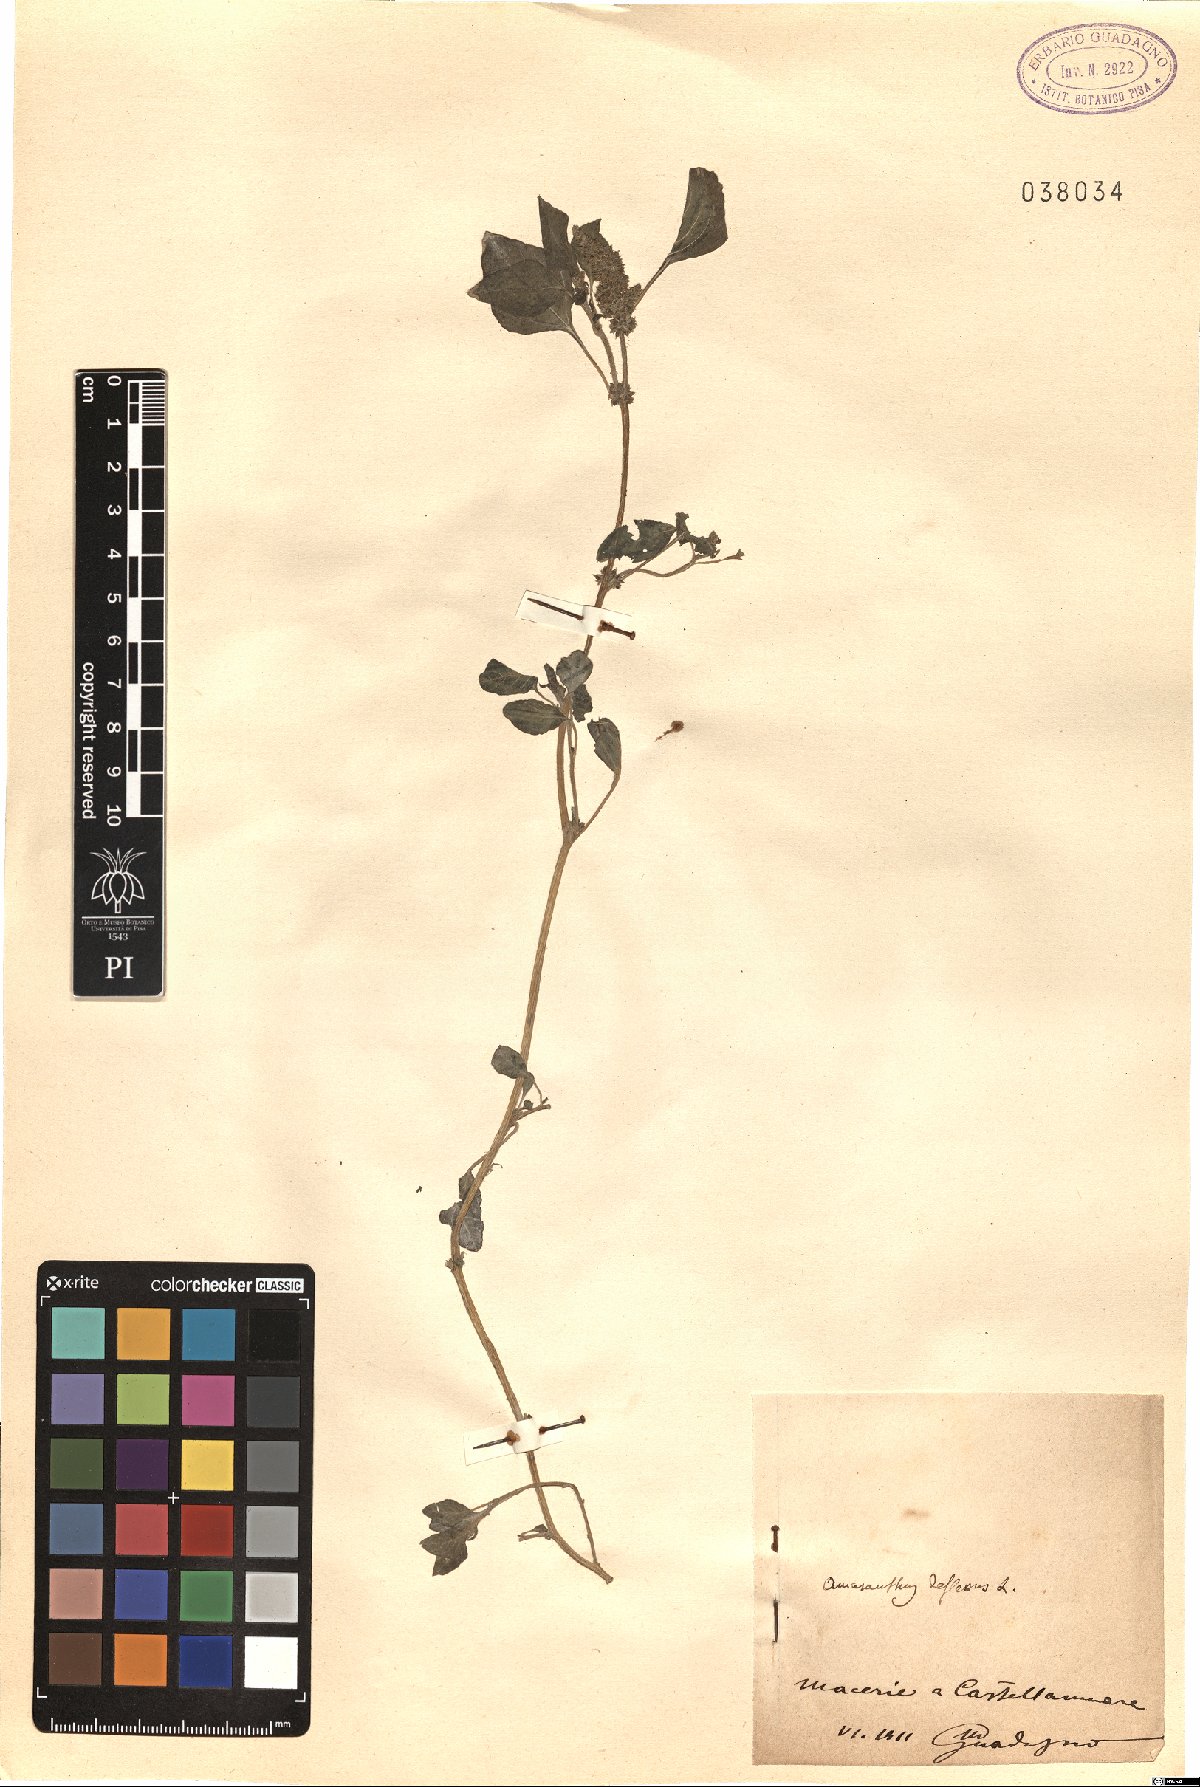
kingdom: Plantae
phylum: Tracheophyta
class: Magnoliopsida
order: Caryophyllales
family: Amaranthaceae
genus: Amaranthus
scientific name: Amaranthus deflexus
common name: Perennial pigweed
